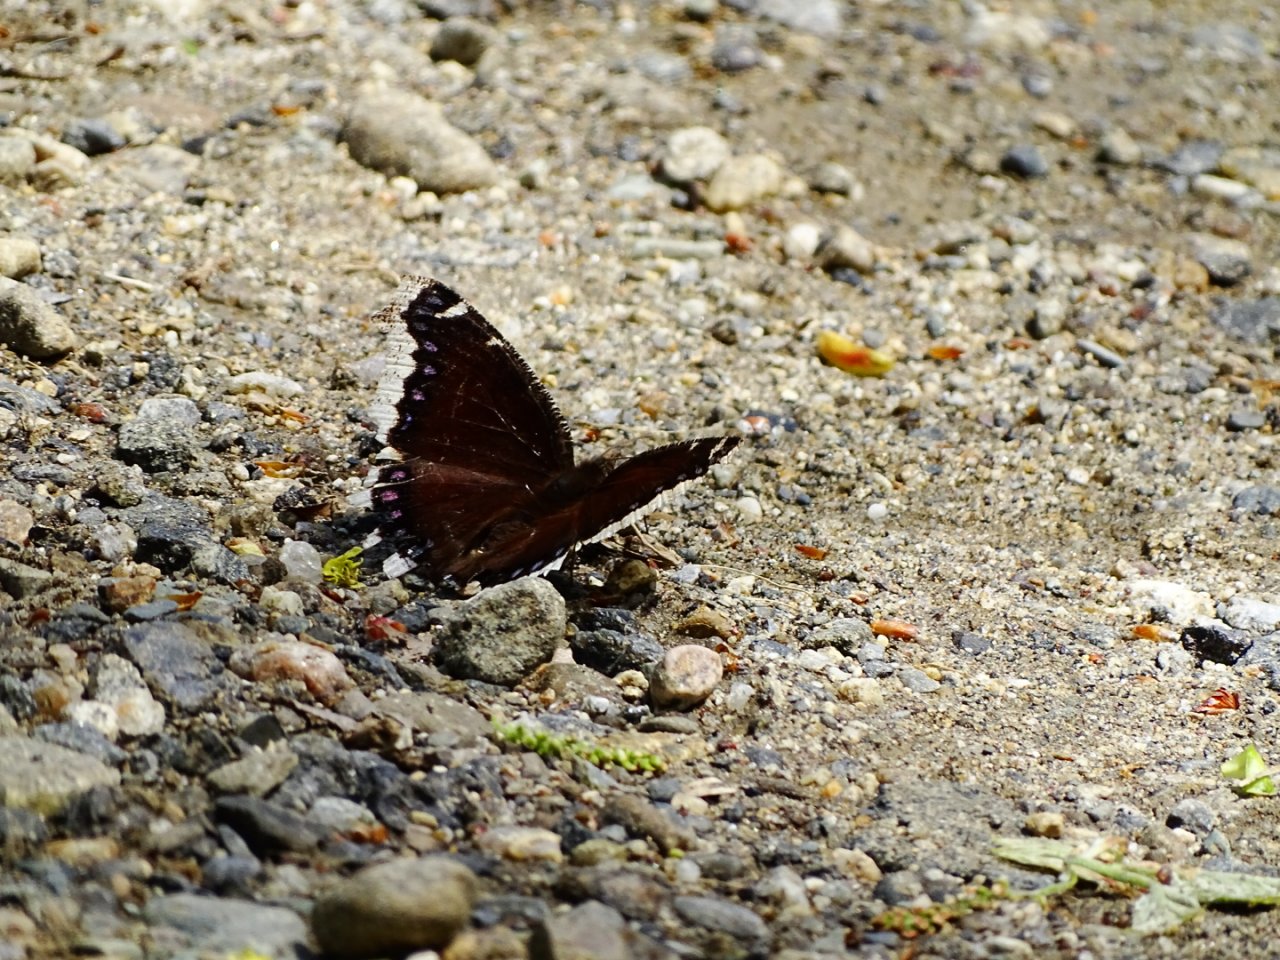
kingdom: Animalia
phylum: Arthropoda
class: Insecta
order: Lepidoptera
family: Nymphalidae
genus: Nymphalis
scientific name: Nymphalis antiopa
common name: Mourning Cloak
